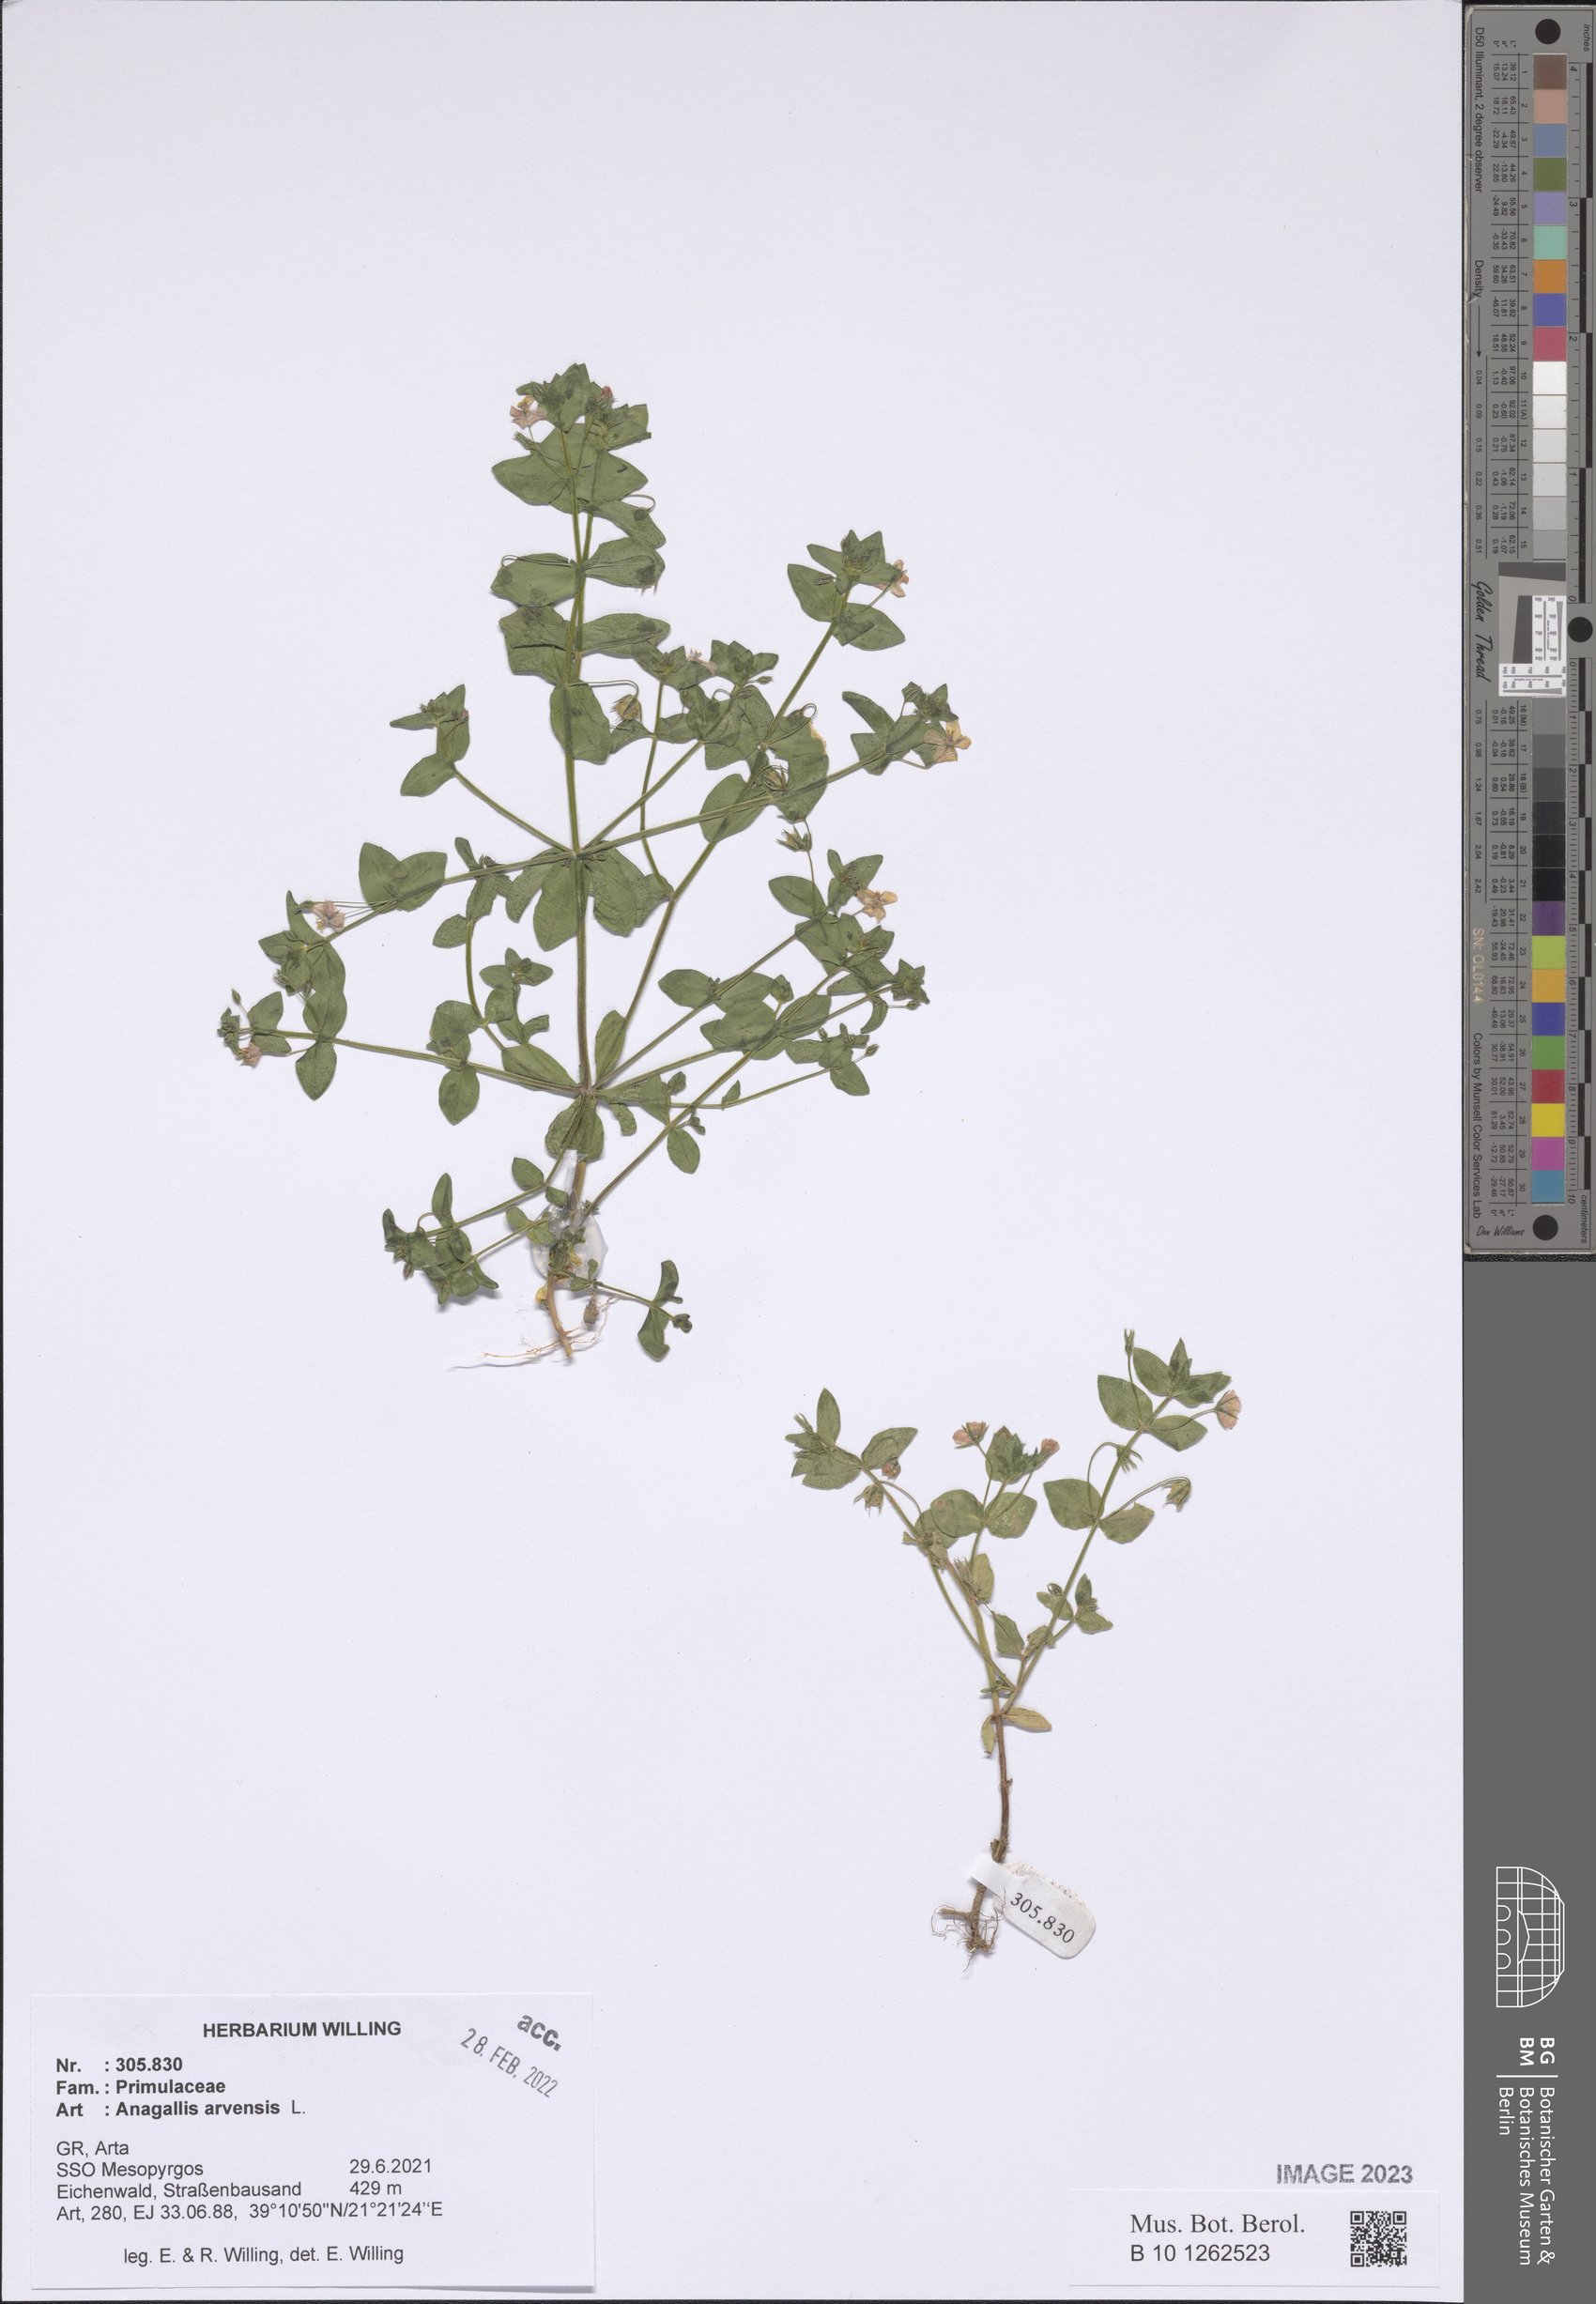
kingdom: Plantae
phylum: Tracheophyta
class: Magnoliopsida
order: Ericales
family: Primulaceae
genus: Lysimachia
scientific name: Lysimachia arvensis
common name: Scarlet pimpernel
